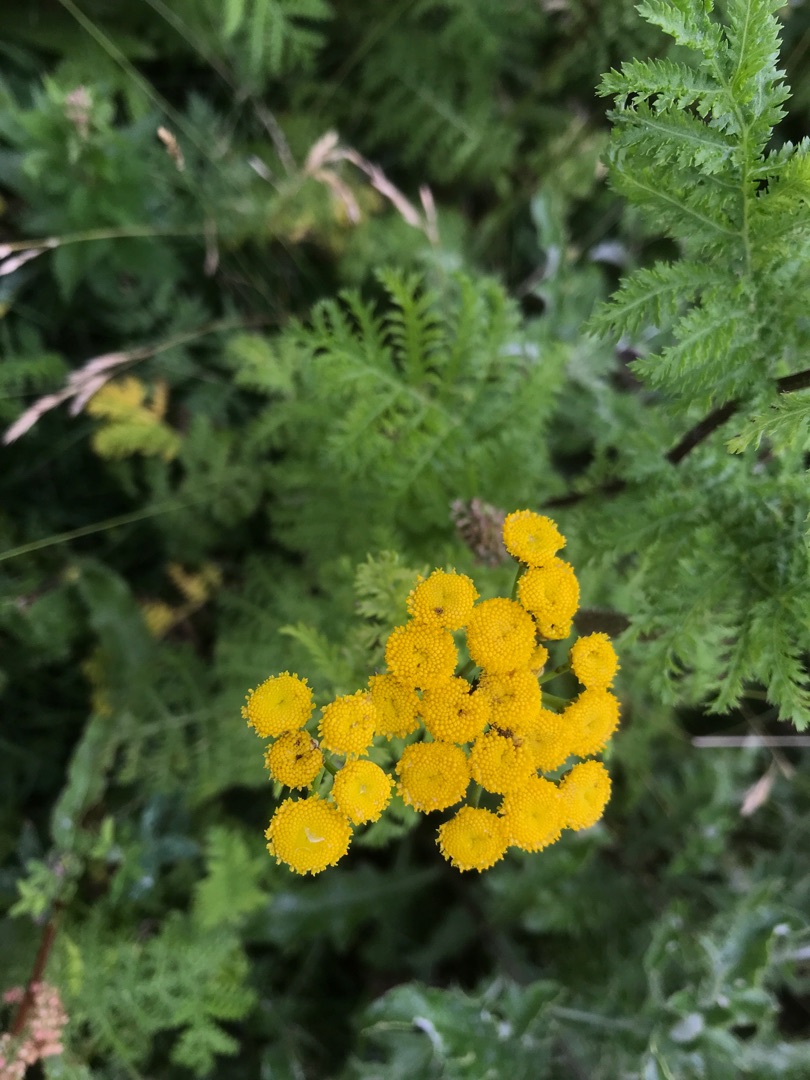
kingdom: Plantae
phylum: Tracheophyta
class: Magnoliopsida
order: Asterales
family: Asteraceae
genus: Tanacetum
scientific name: Tanacetum vulgare
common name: Rejnfan
